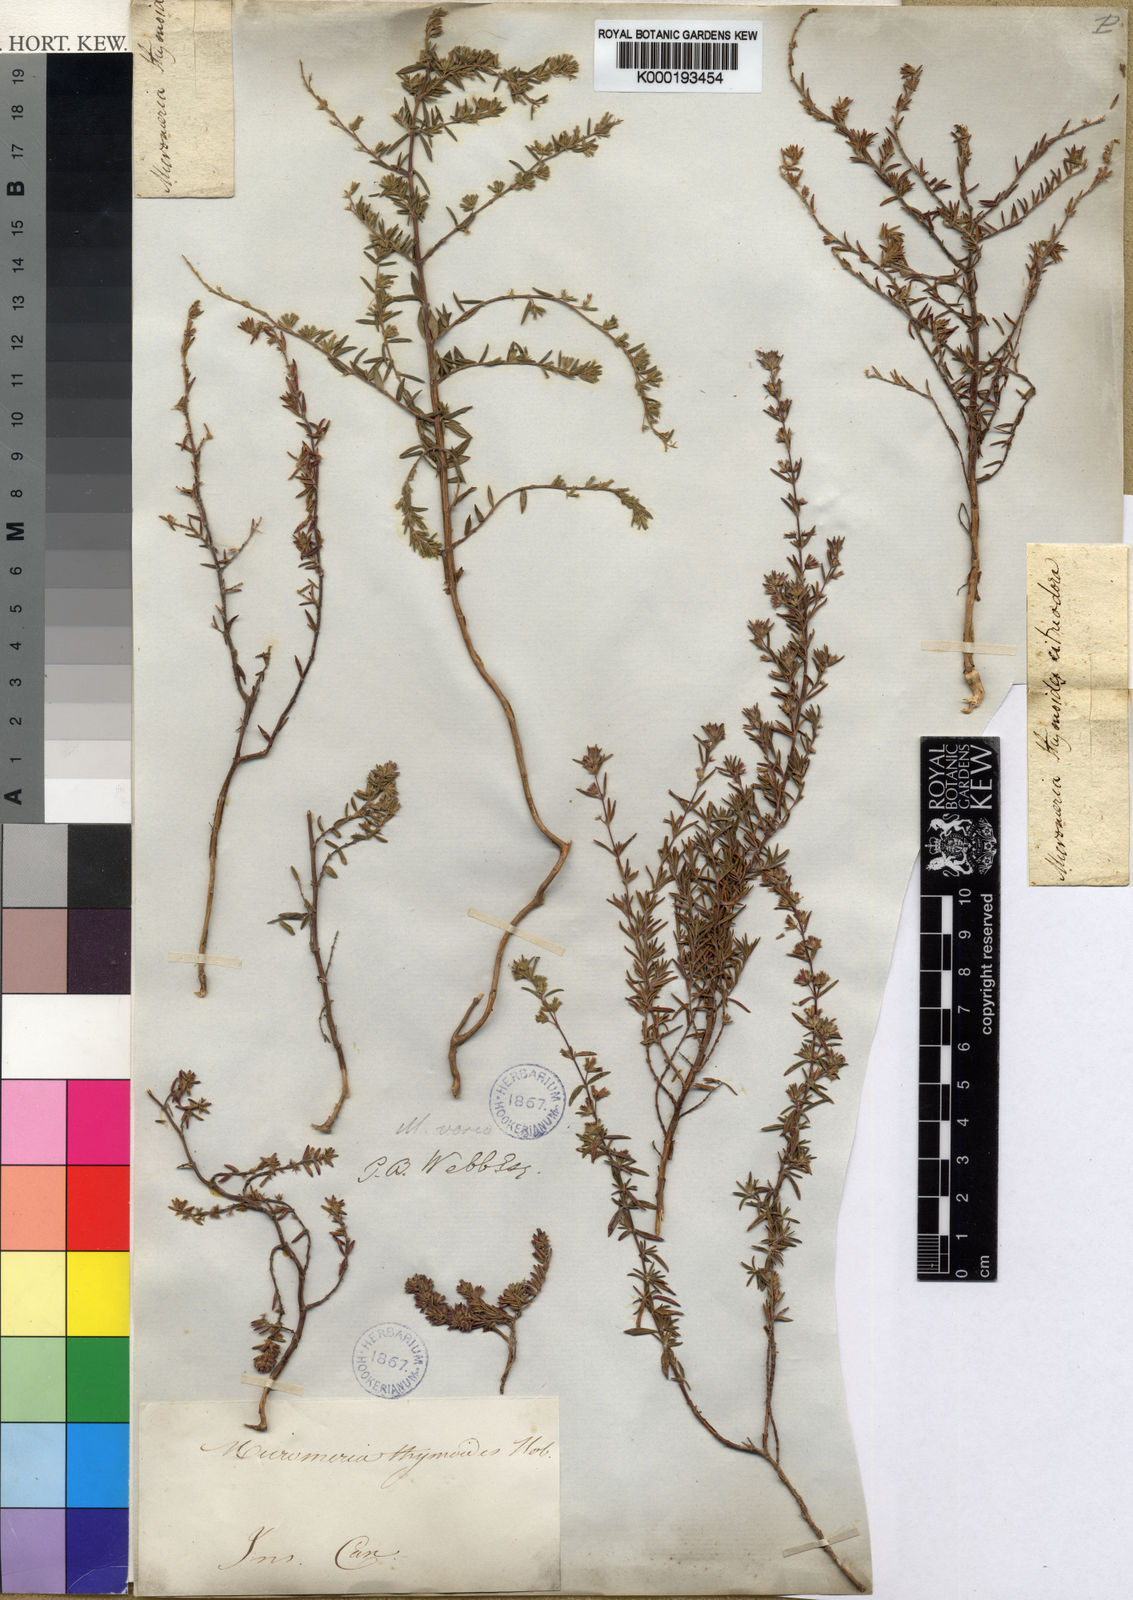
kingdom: Plantae
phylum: Tracheophyta
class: Magnoliopsida
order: Lamiales
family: Lamiaceae
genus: Micromeria
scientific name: Micromeria maderensis
